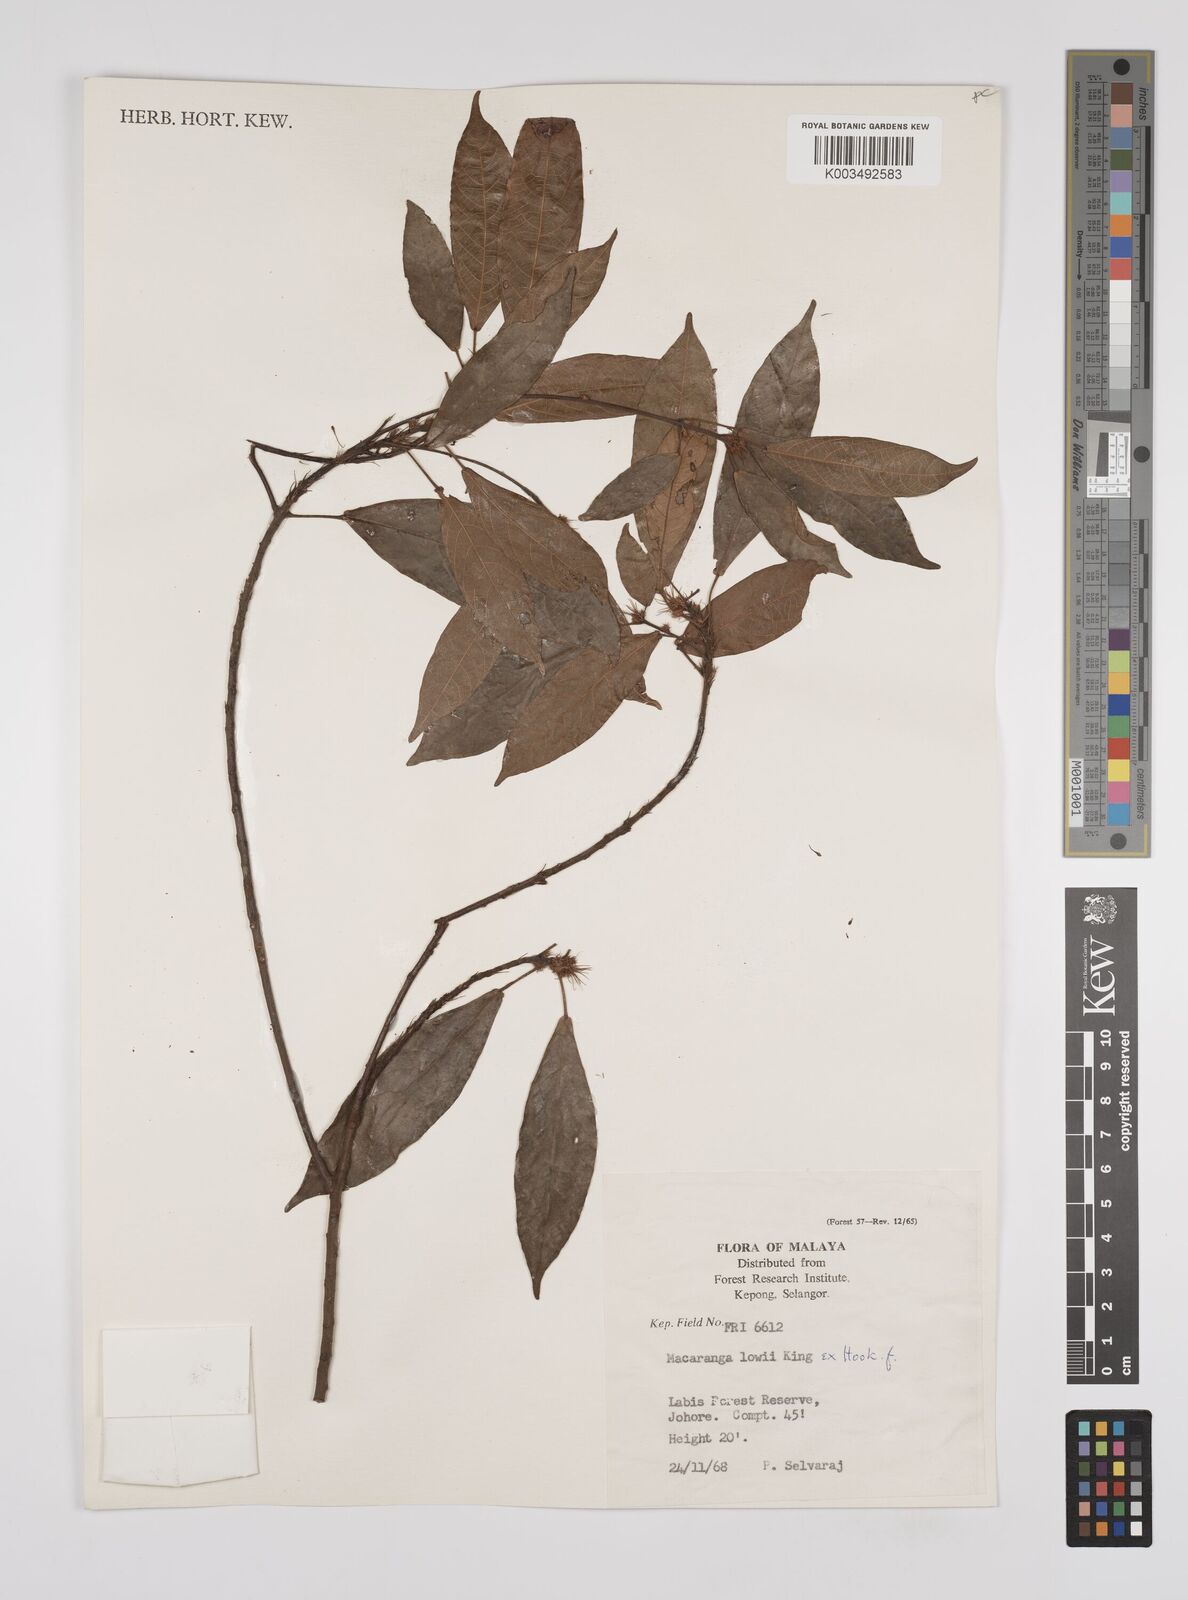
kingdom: Plantae
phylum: Tracheophyta
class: Magnoliopsida
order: Malpighiales
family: Euphorbiaceae
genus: Macaranga
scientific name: Macaranga lowii
